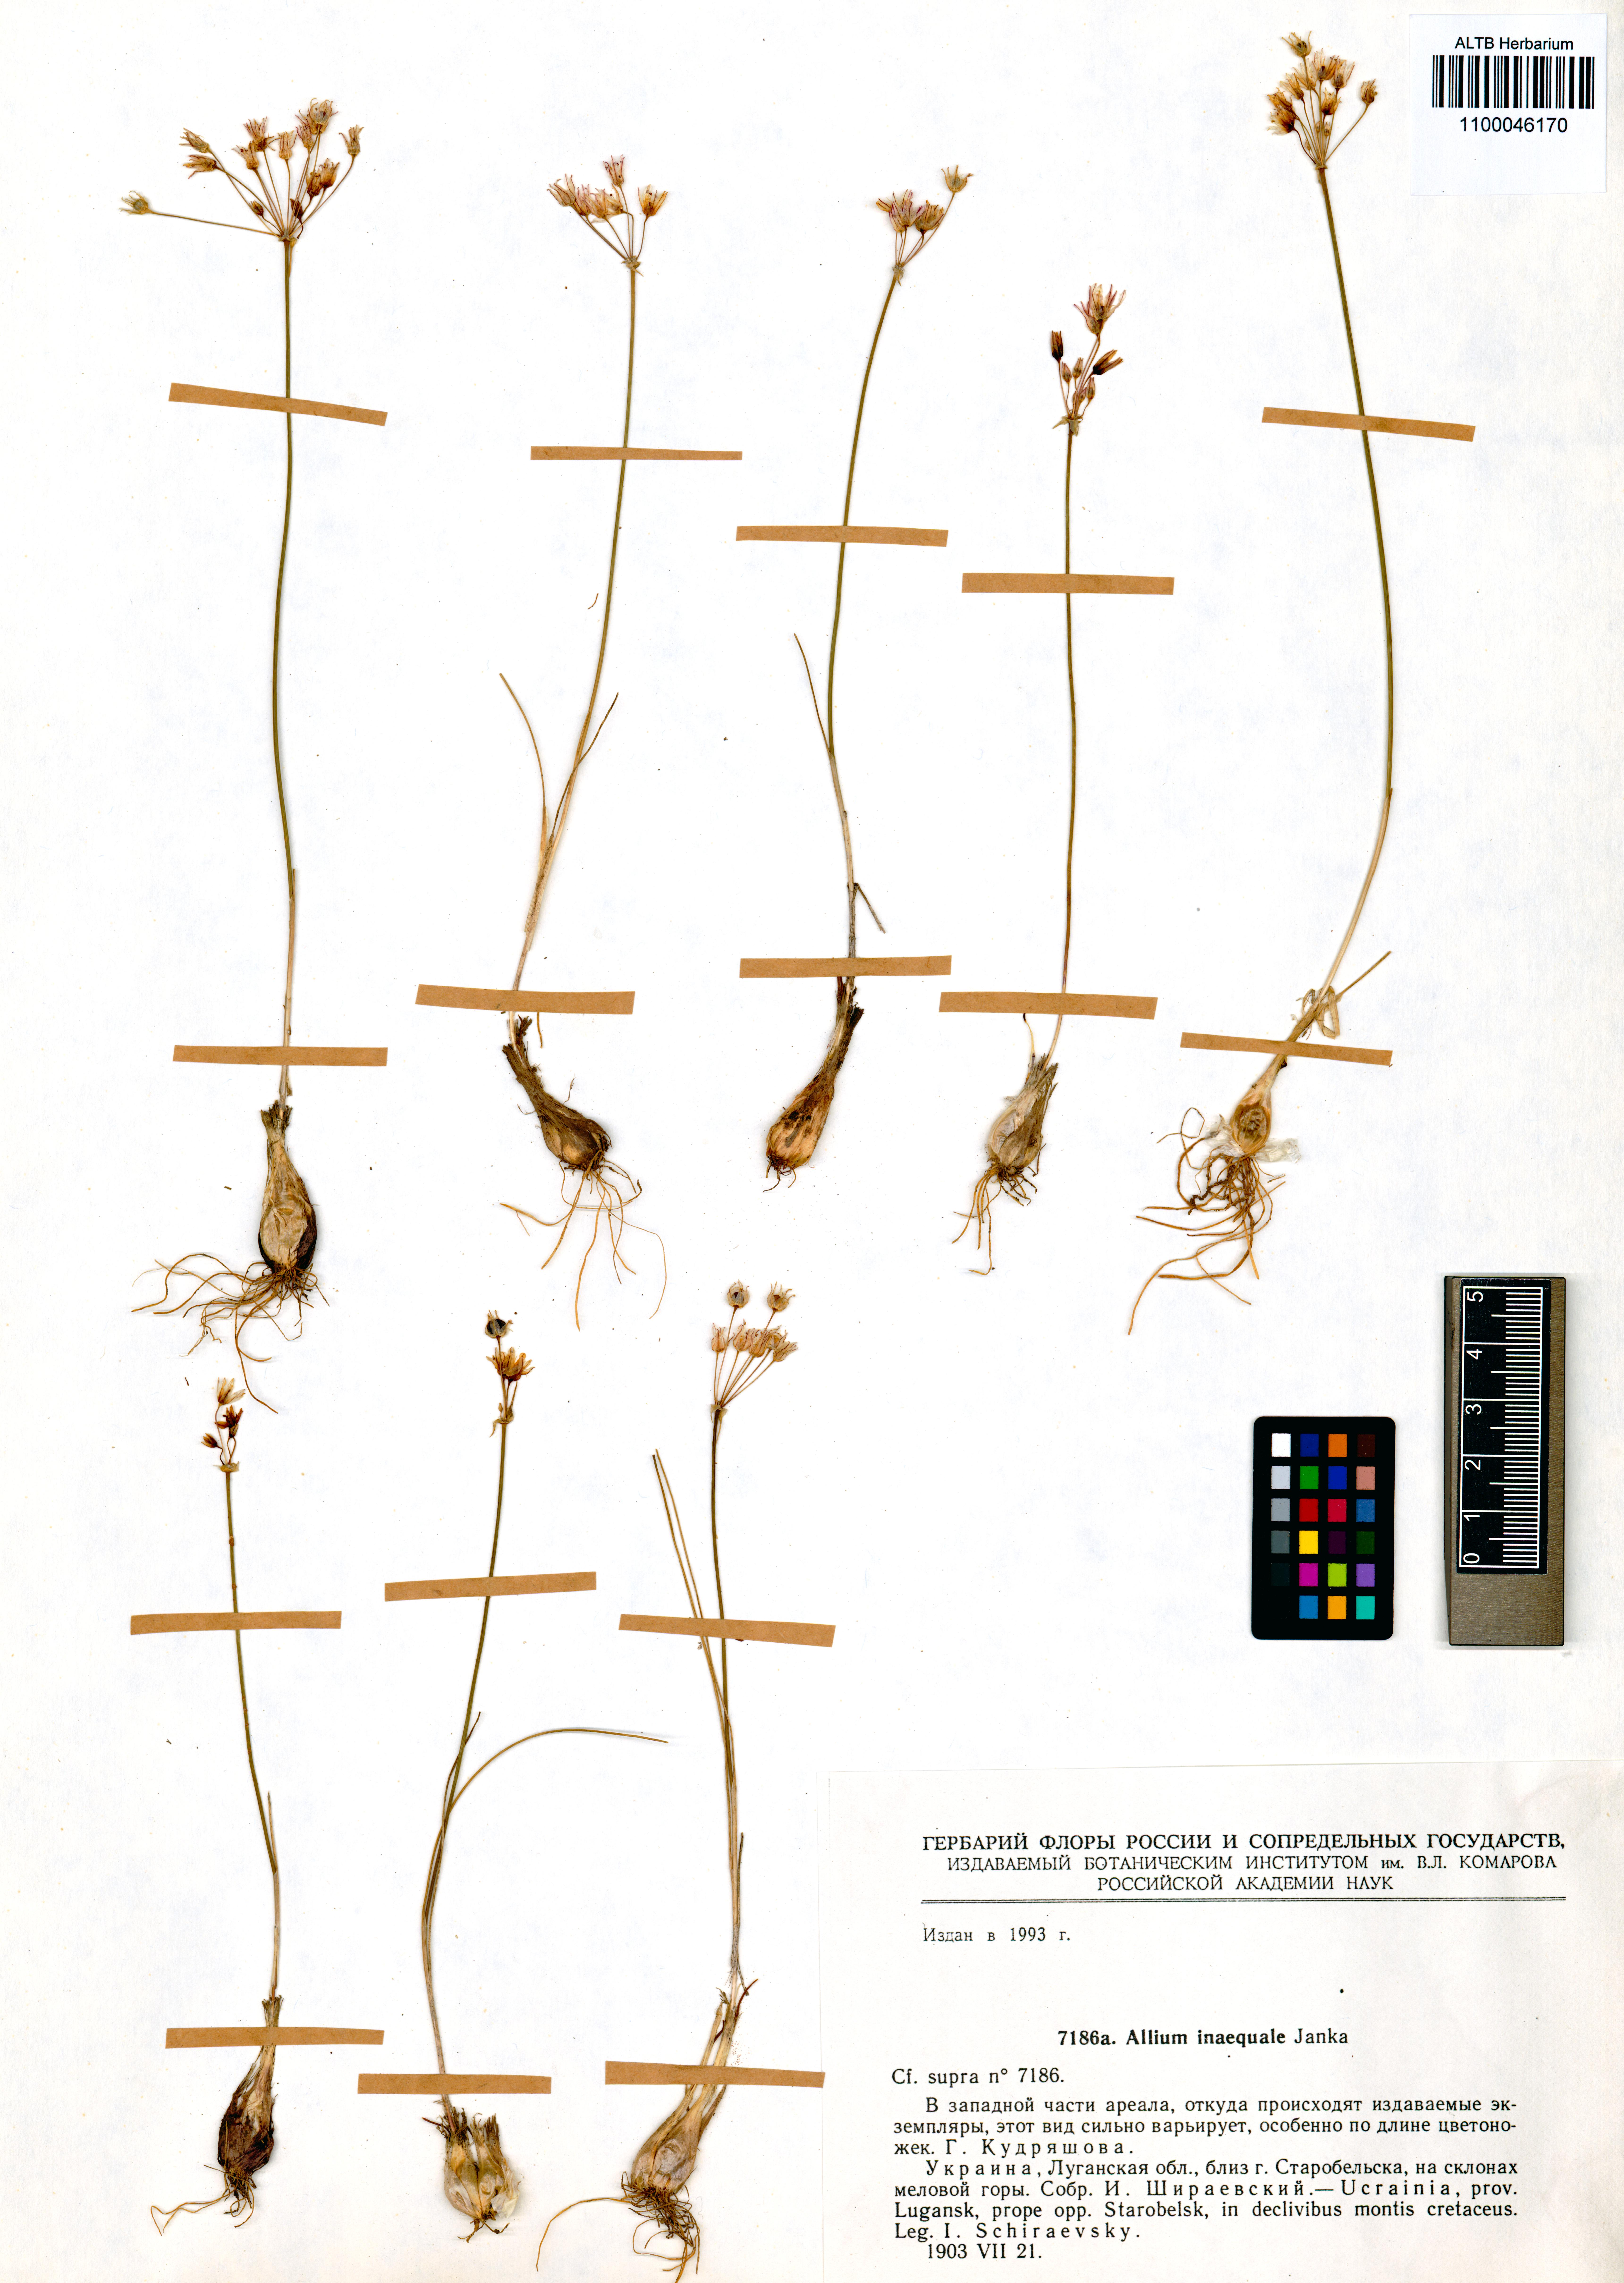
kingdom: Plantae
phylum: Tracheophyta
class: Liliopsida
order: Asparagales
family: Amaryllidaceae
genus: Allium
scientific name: Allium inaequale
